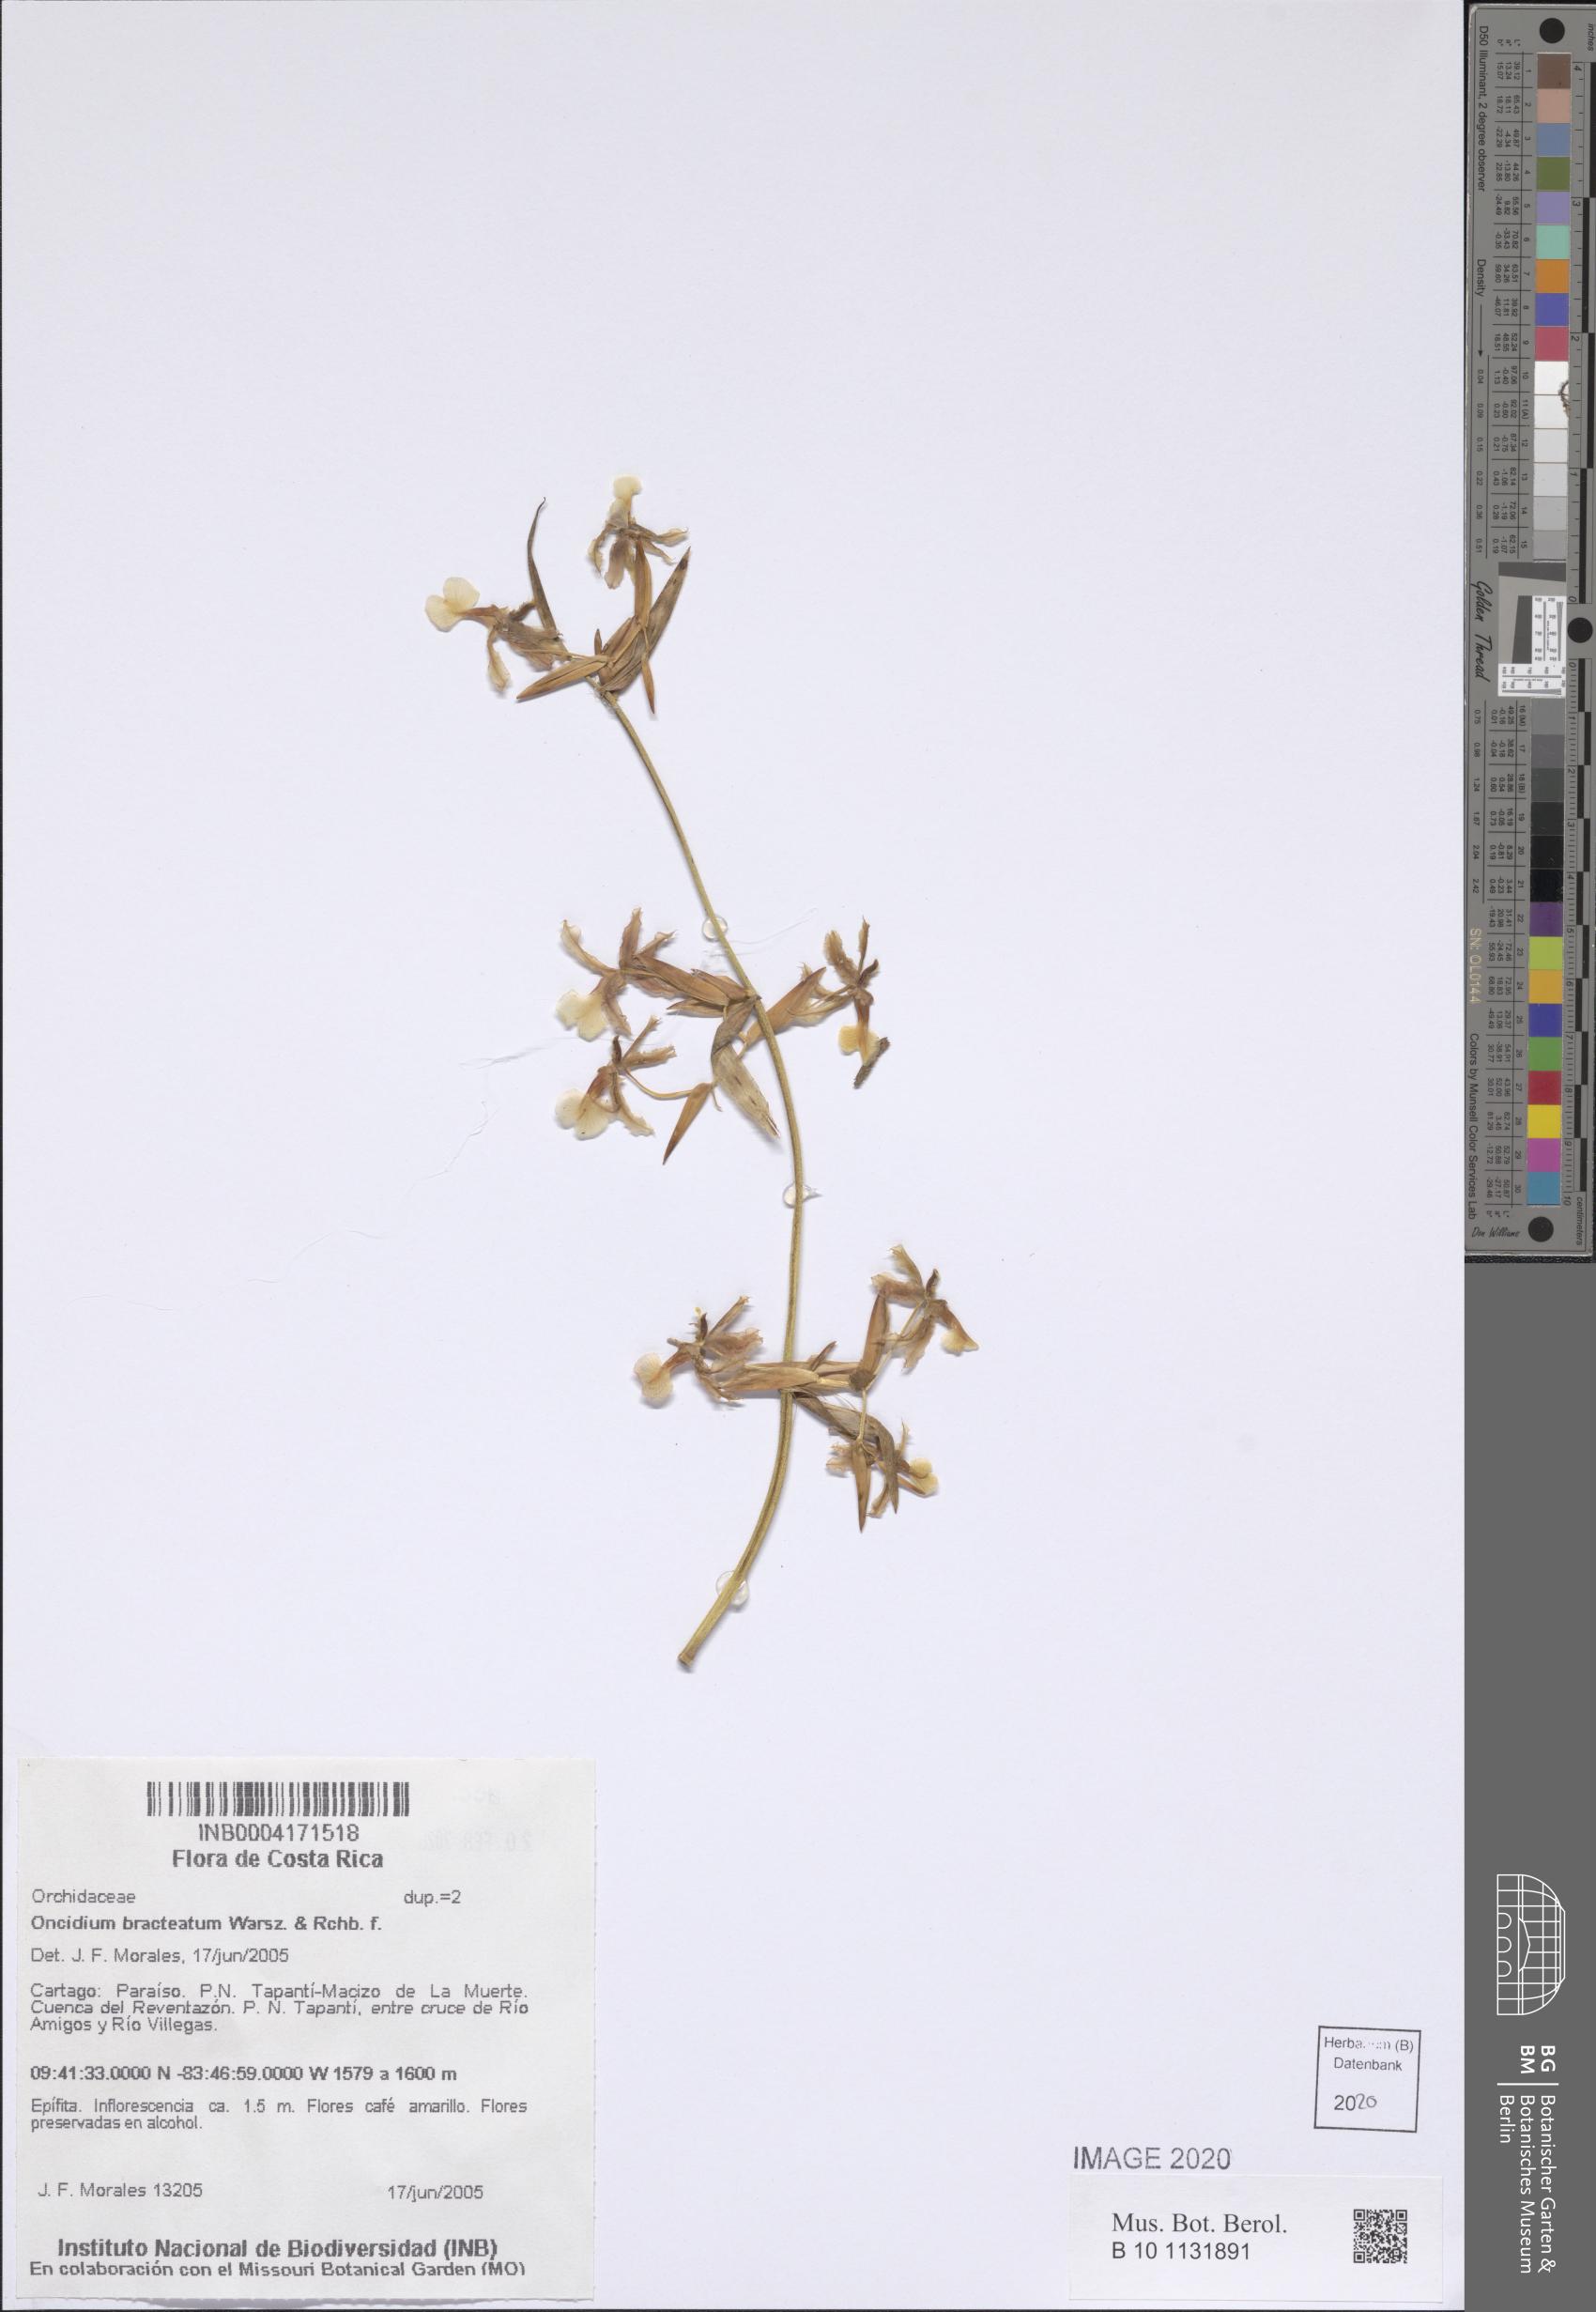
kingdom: Plantae
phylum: Tracheophyta
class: Liliopsida
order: Asparagales
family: Orchidaceae
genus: Oncidium
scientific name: Oncidium bracteatum
